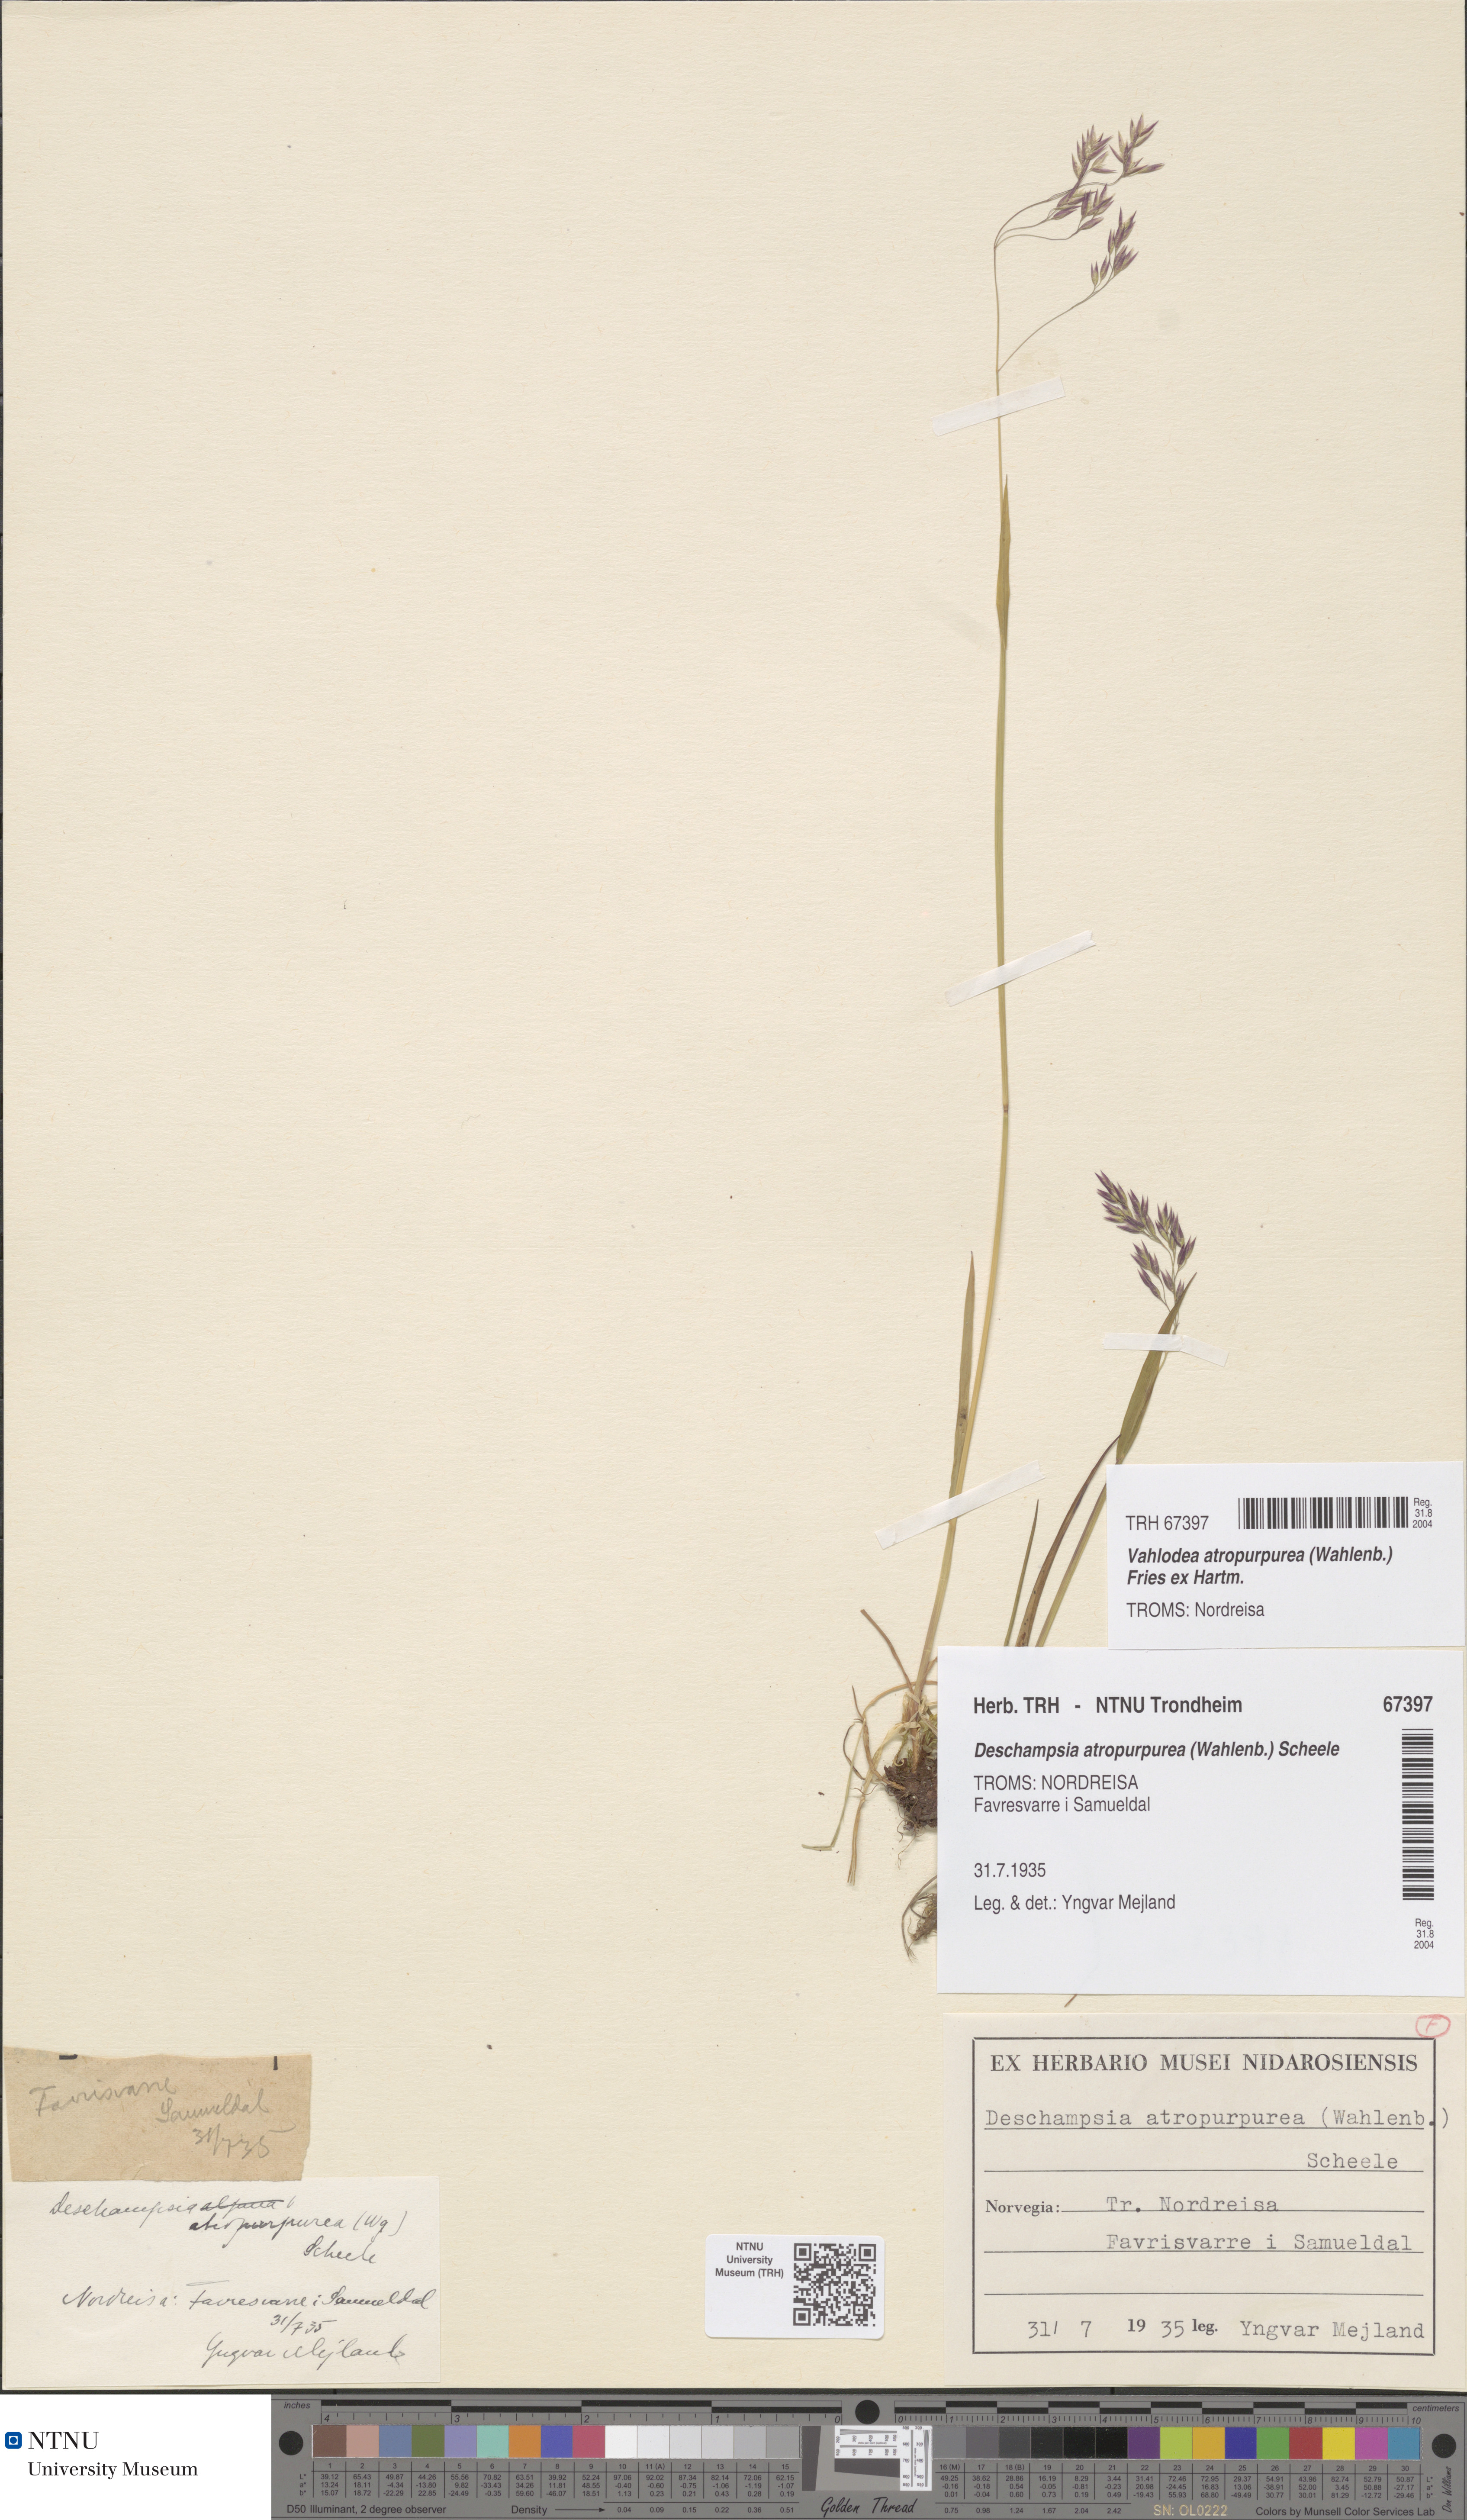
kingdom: Plantae
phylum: Tracheophyta
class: Liliopsida
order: Poales
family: Poaceae
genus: Vahlodea
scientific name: Vahlodea atropurpurea
